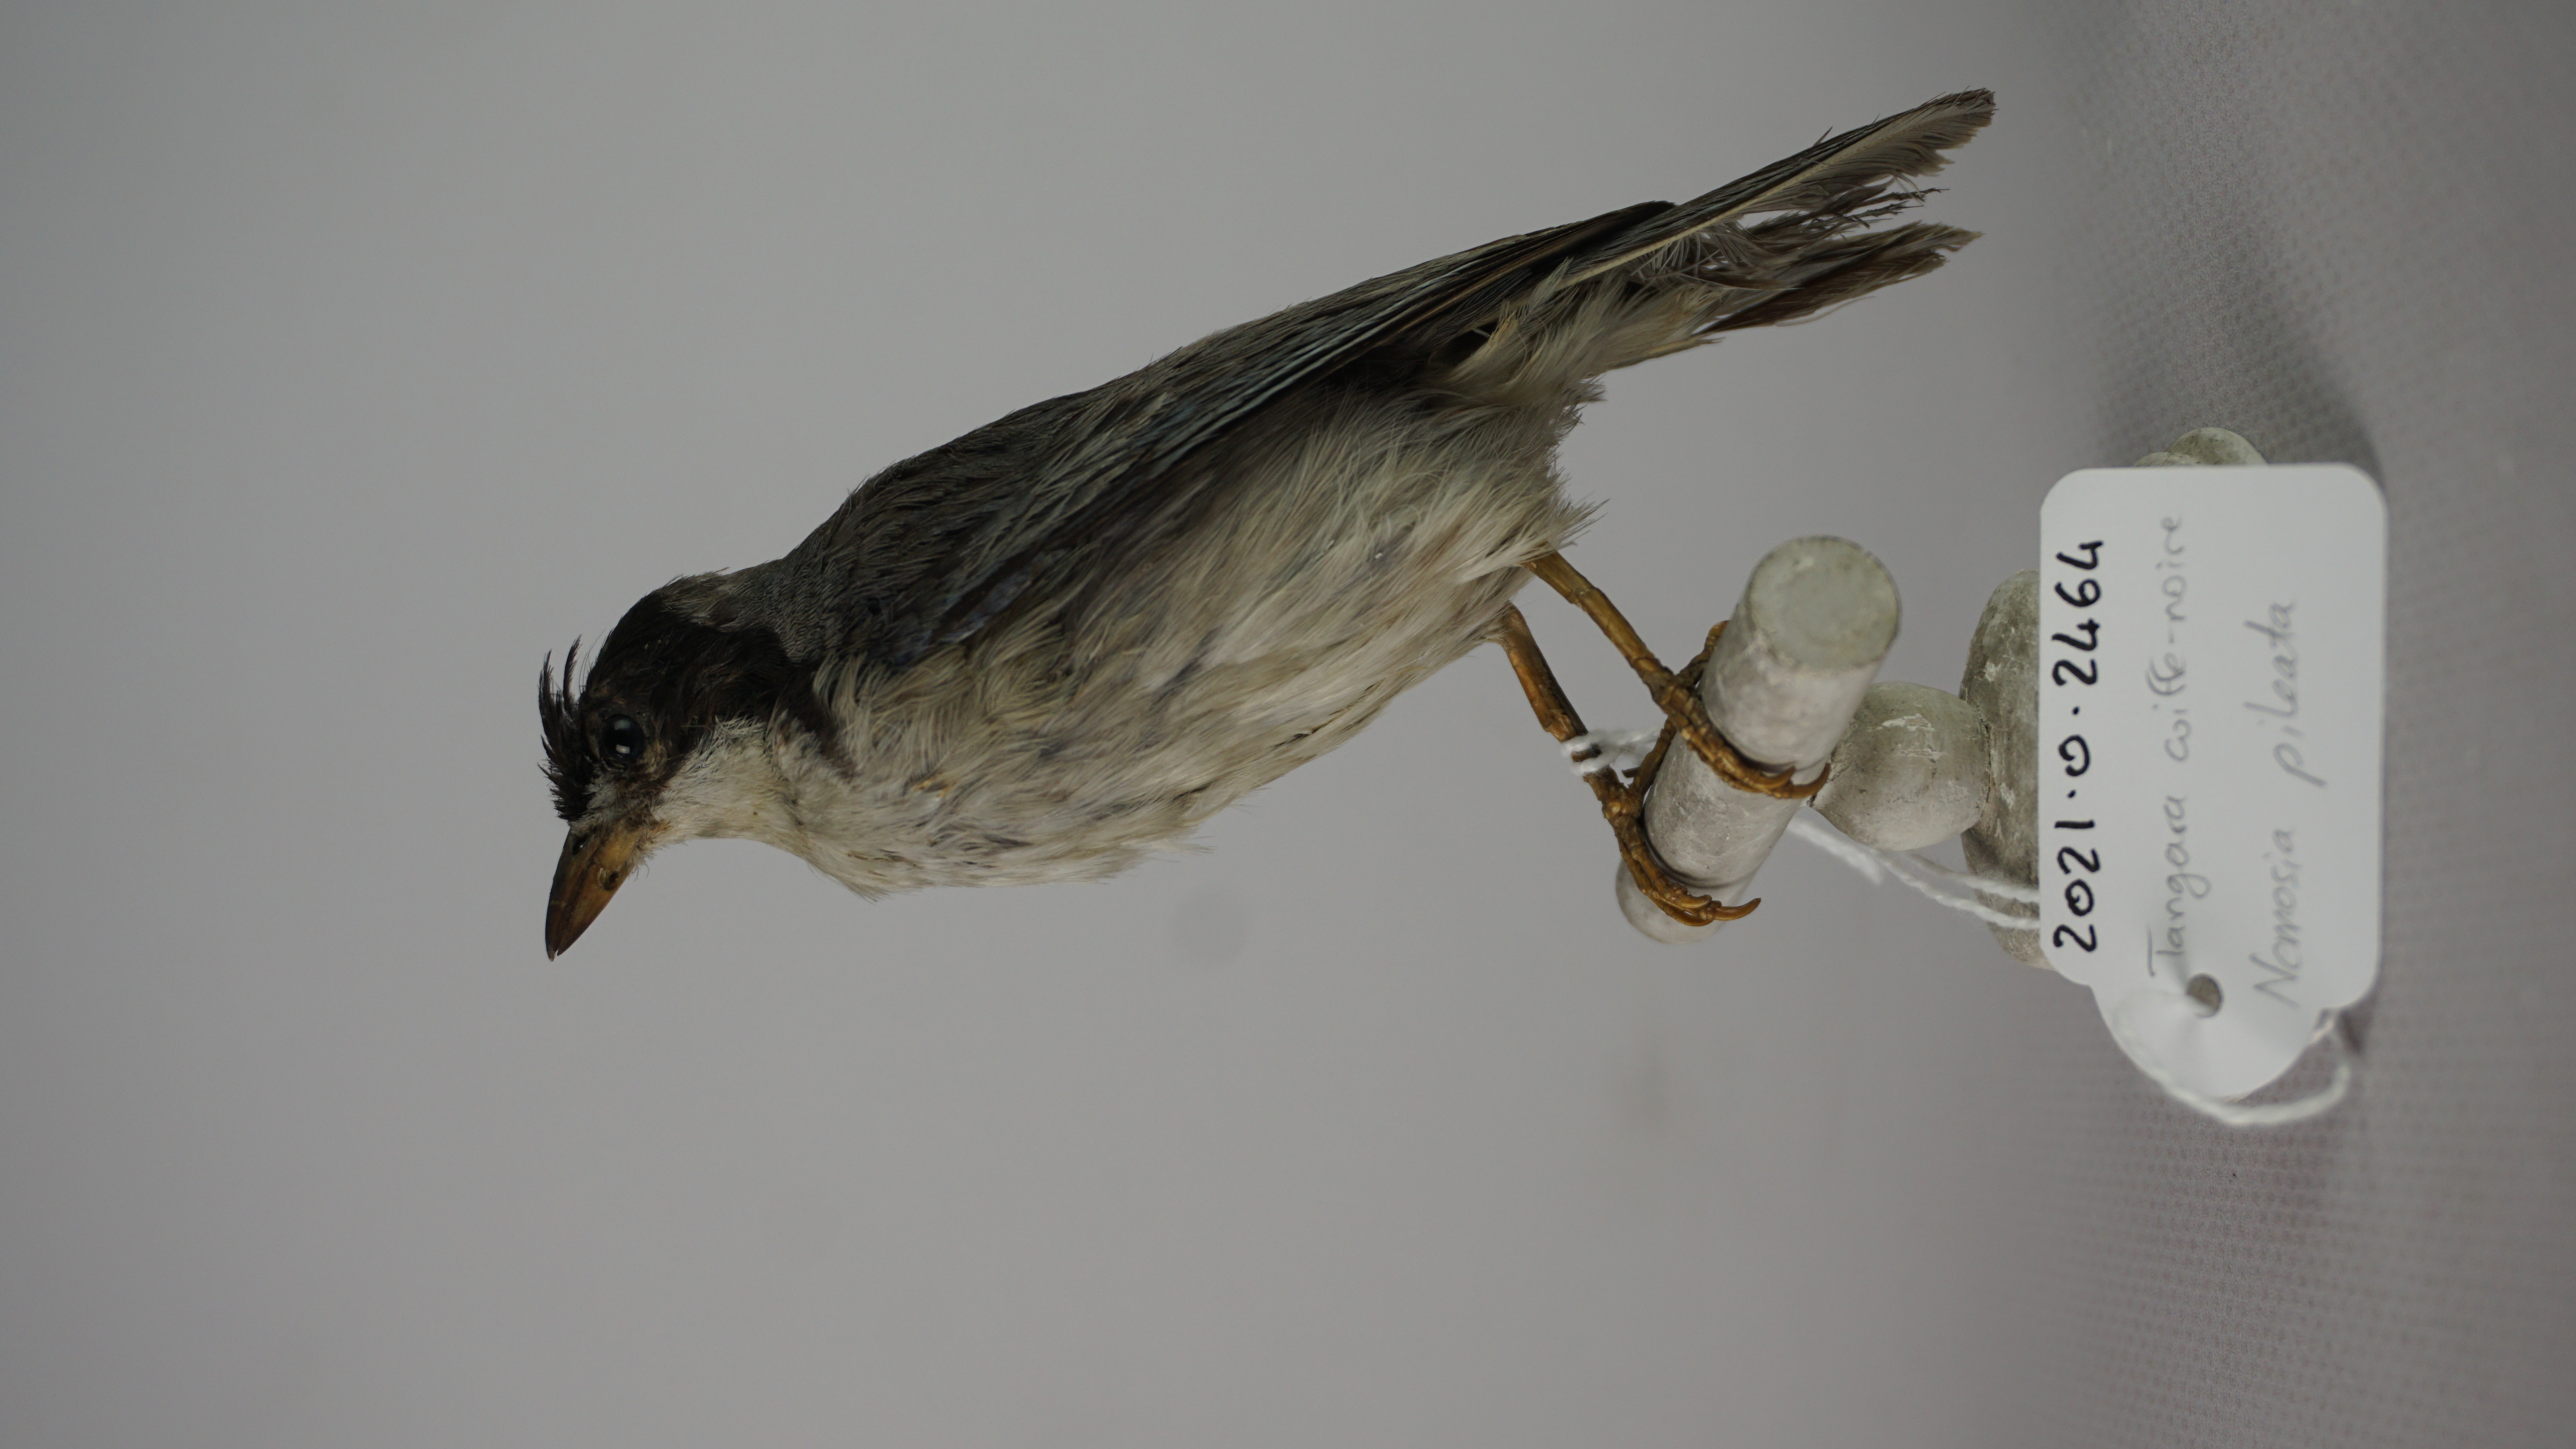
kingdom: Animalia
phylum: Chordata
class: Aves
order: Passeriformes
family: Thraupidae
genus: Nemosia
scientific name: Nemosia pileata
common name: Hooded tanager
